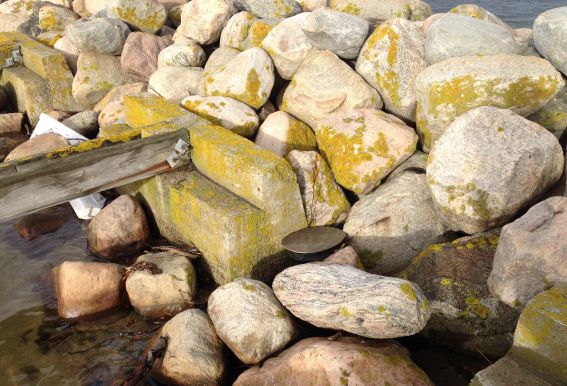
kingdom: Fungi
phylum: Ascomycota
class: Lecanoromycetes
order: Teloschistales
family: Teloschistaceae
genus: Xanthoria
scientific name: Xanthoria parietina
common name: almindelig væggelav
